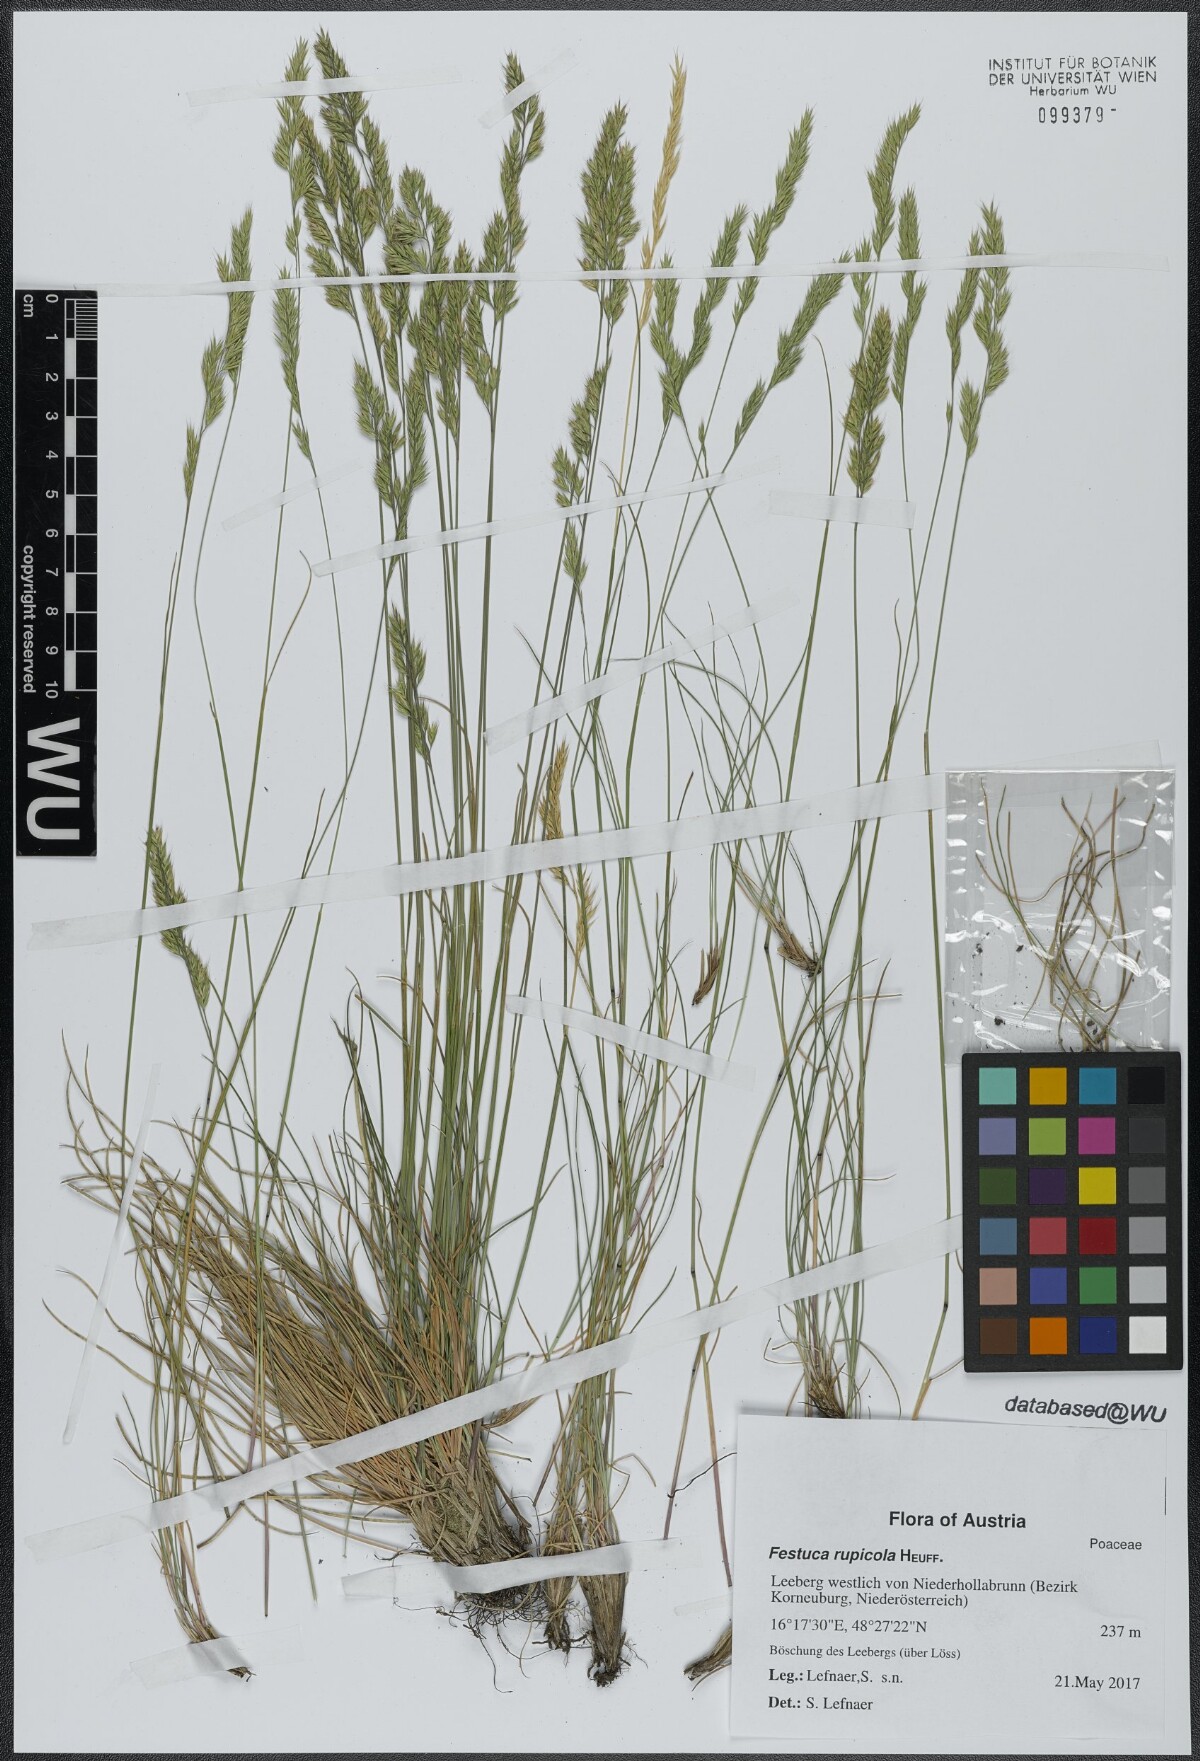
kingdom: Plantae
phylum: Tracheophyta
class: Liliopsida
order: Poales
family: Poaceae
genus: Festuca
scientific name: Festuca rupicola
